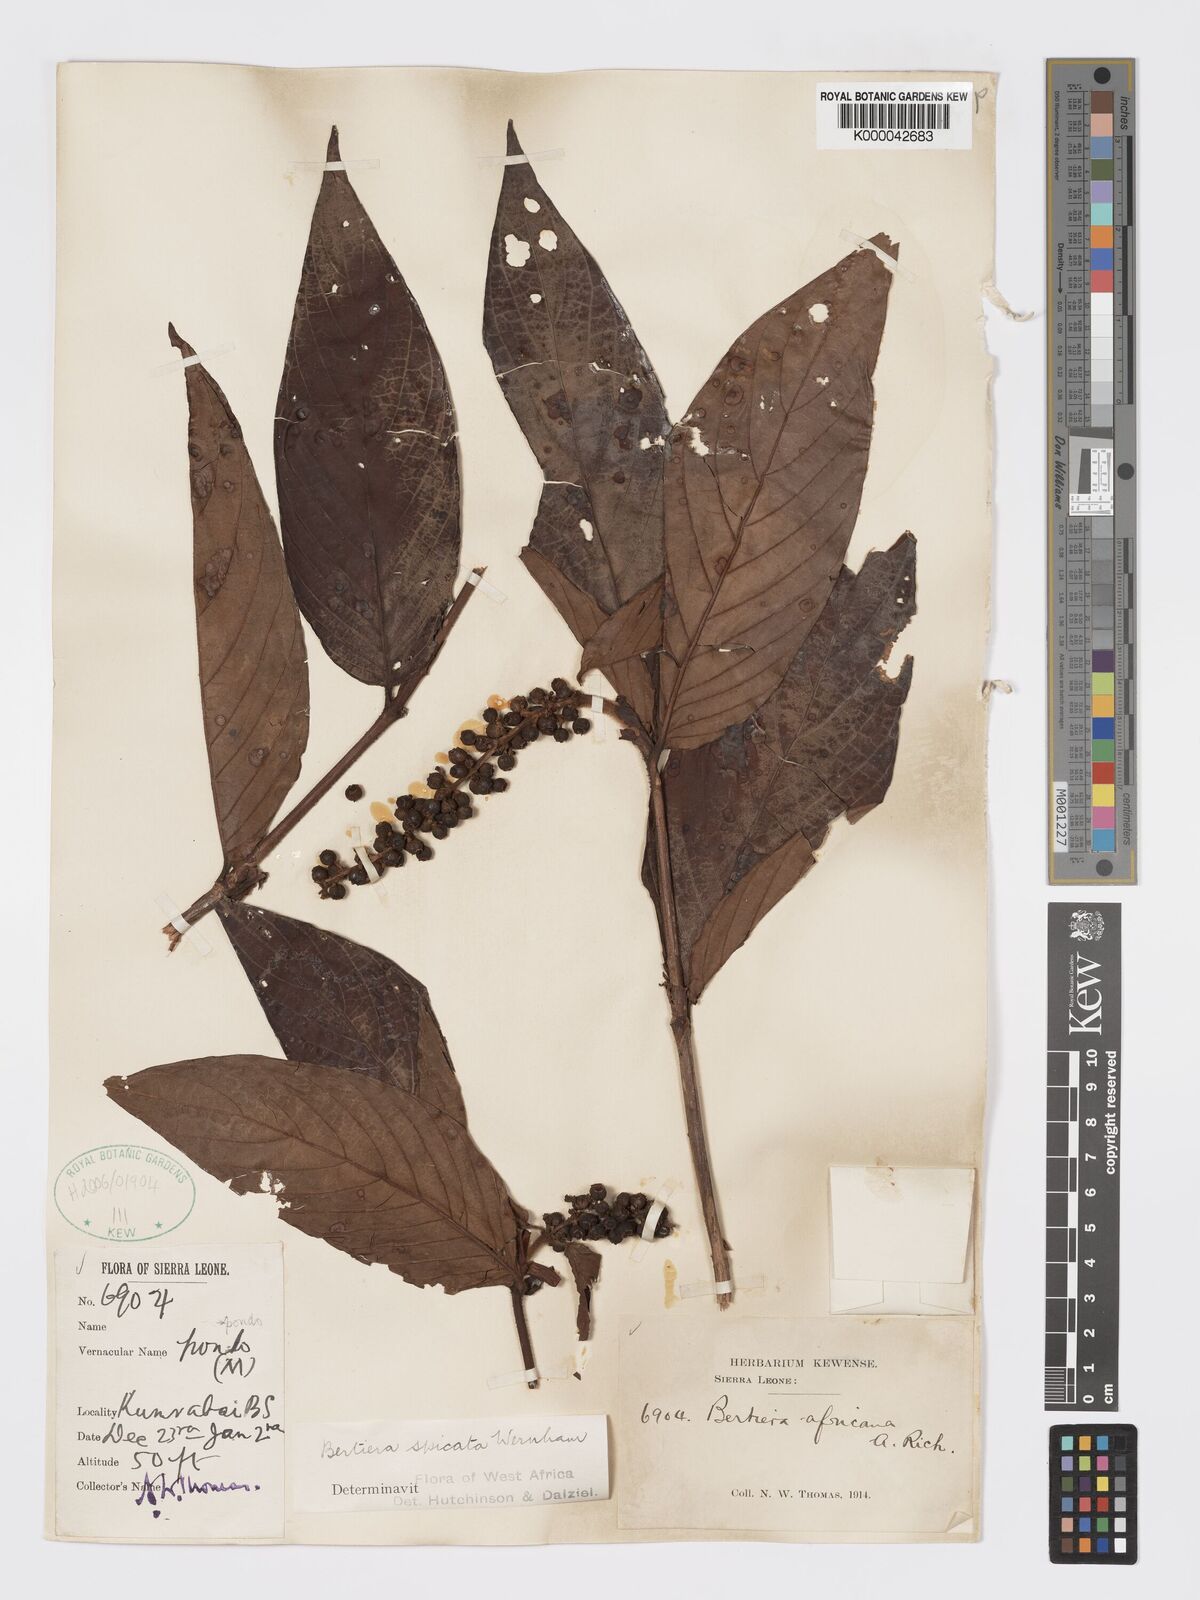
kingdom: Plantae
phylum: Tracheophyta
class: Magnoliopsida
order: Gentianales
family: Rubiaceae
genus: Bertiera
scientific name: Bertiera
